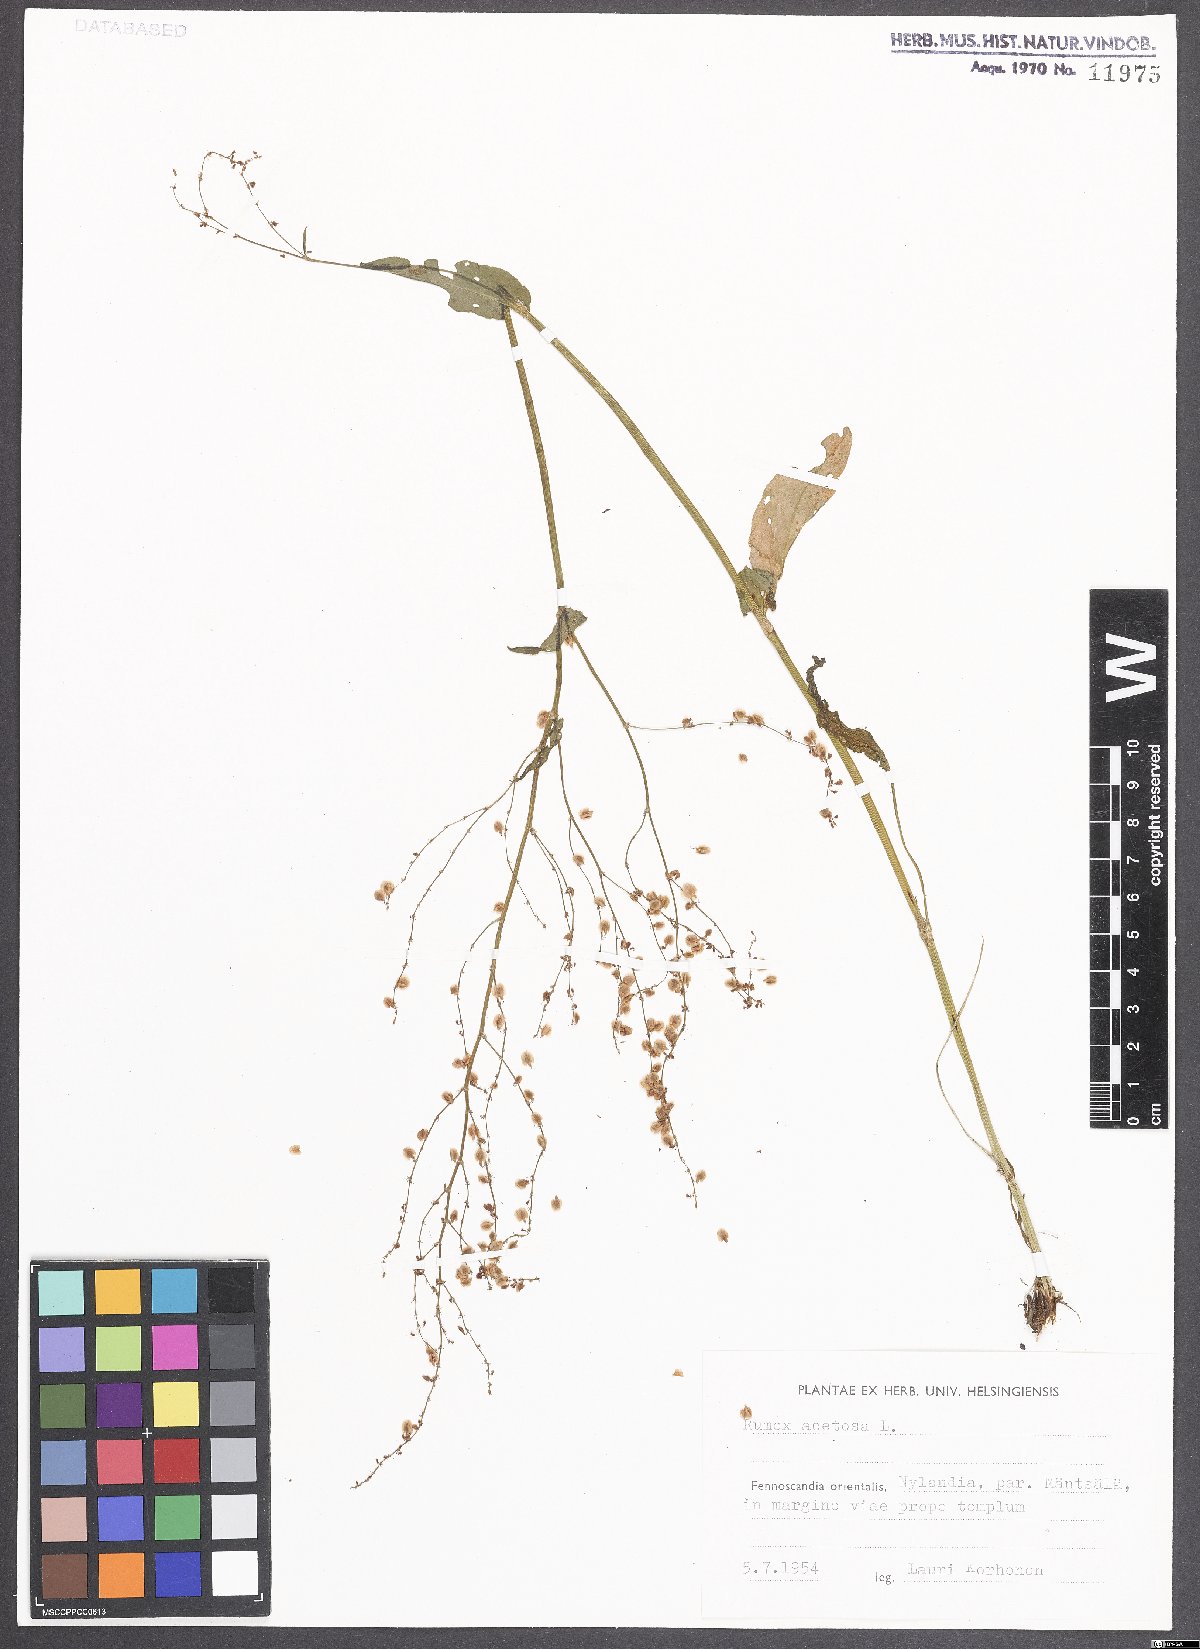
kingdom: Plantae
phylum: Tracheophyta
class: Magnoliopsida
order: Caryophyllales
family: Polygonaceae
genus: Rumex
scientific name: Rumex acetosa
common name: Garden sorrel
